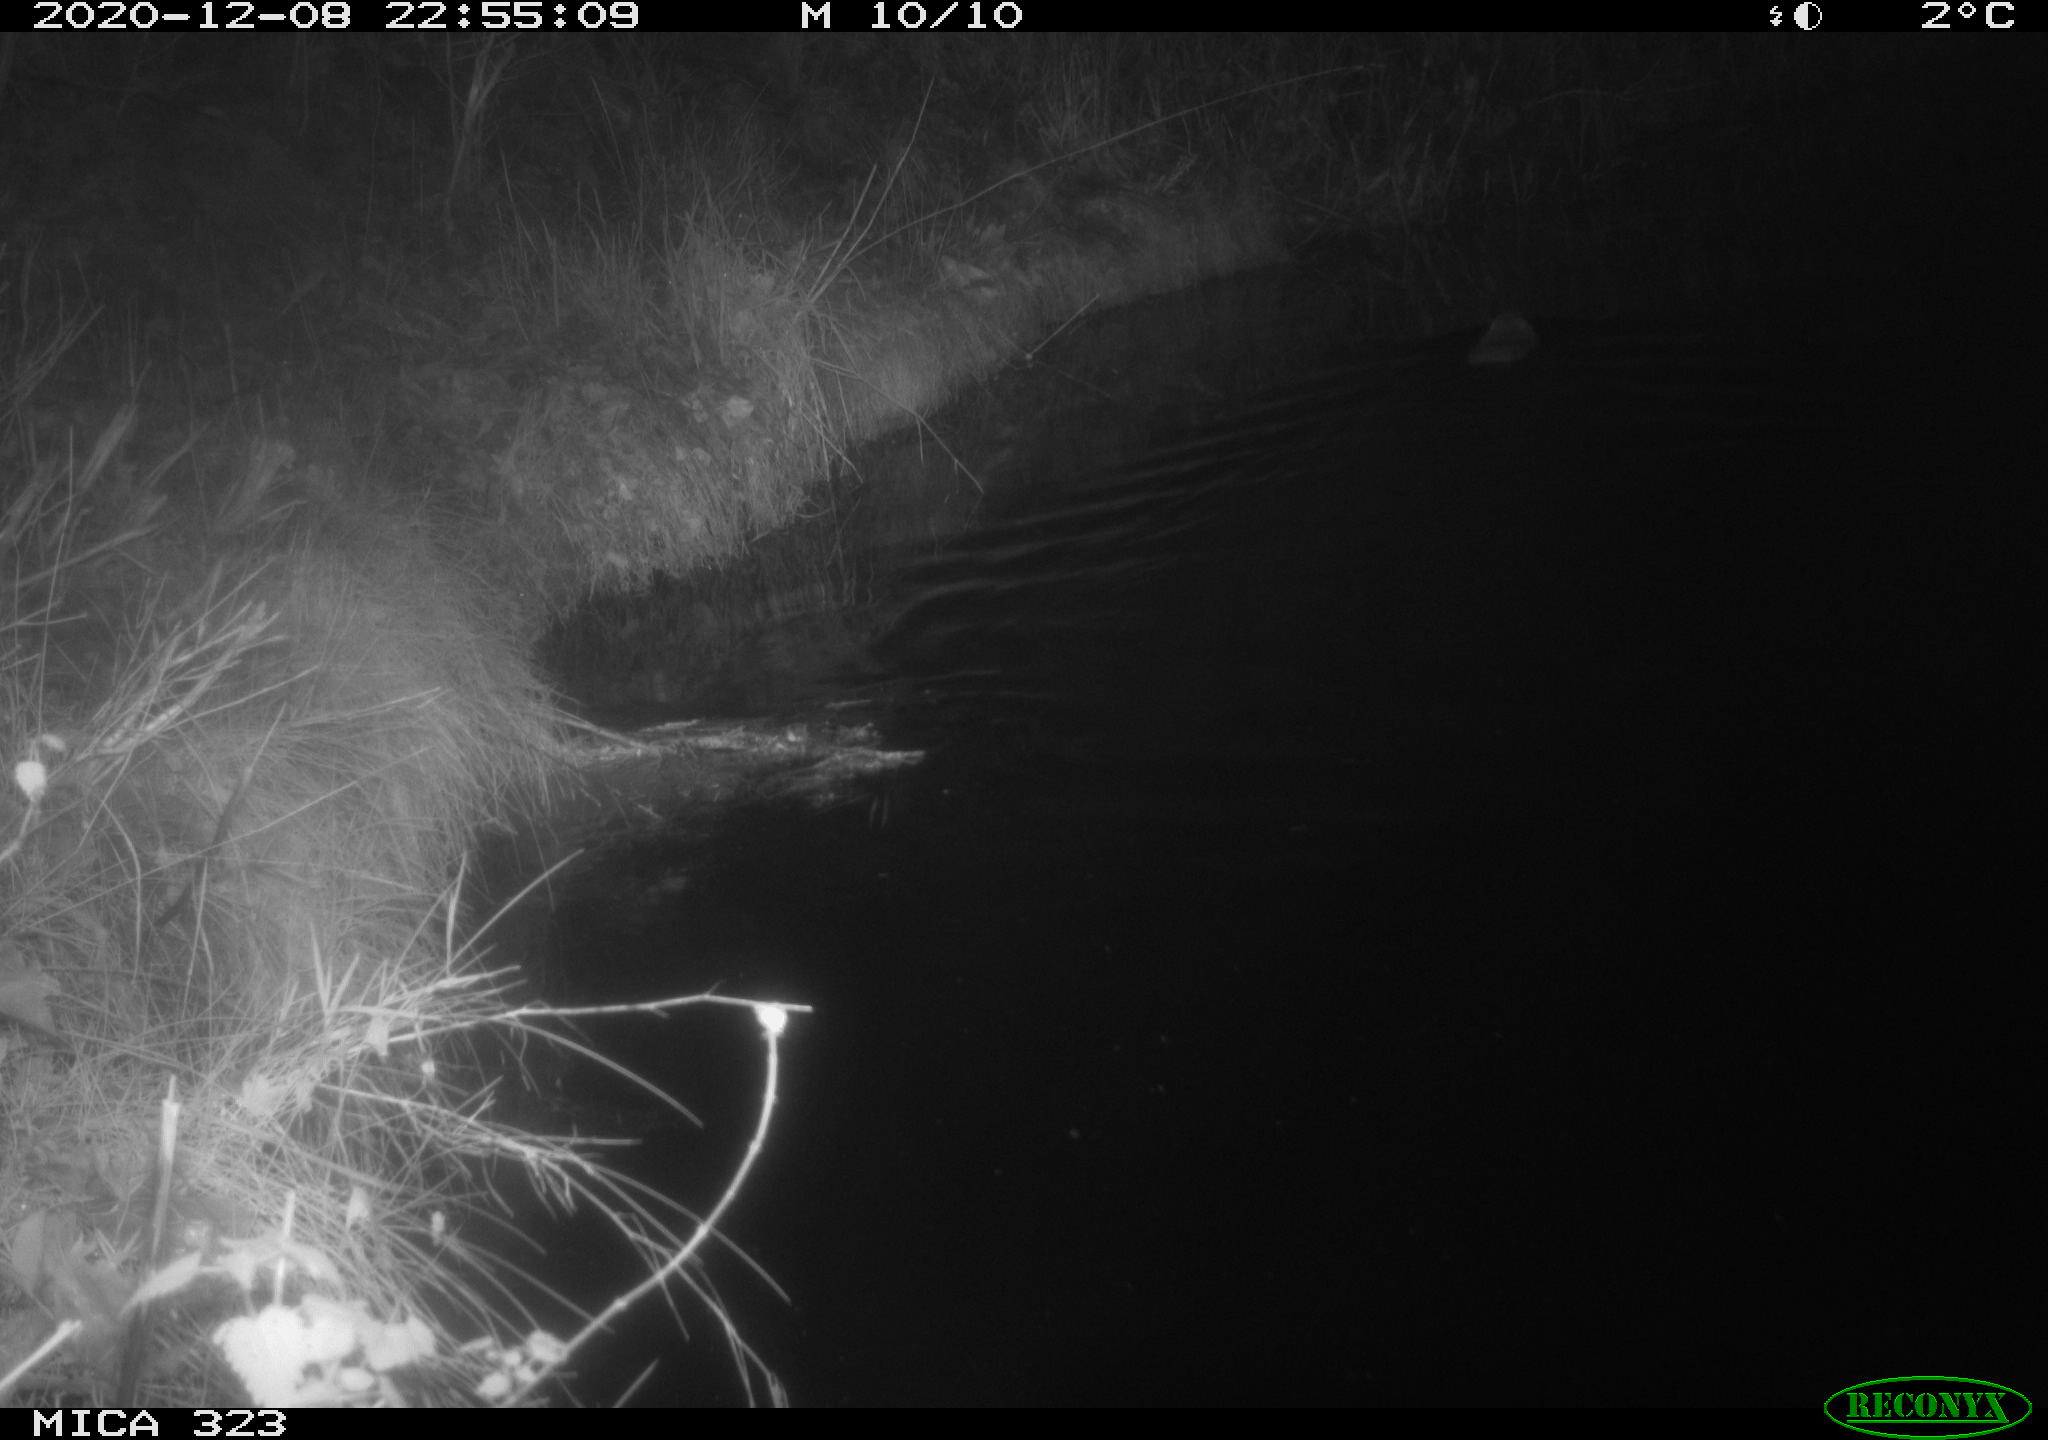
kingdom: Animalia
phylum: Chordata
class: Mammalia
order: Rodentia
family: Myocastoridae
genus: Myocastor
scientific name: Myocastor coypus
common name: Coypu
